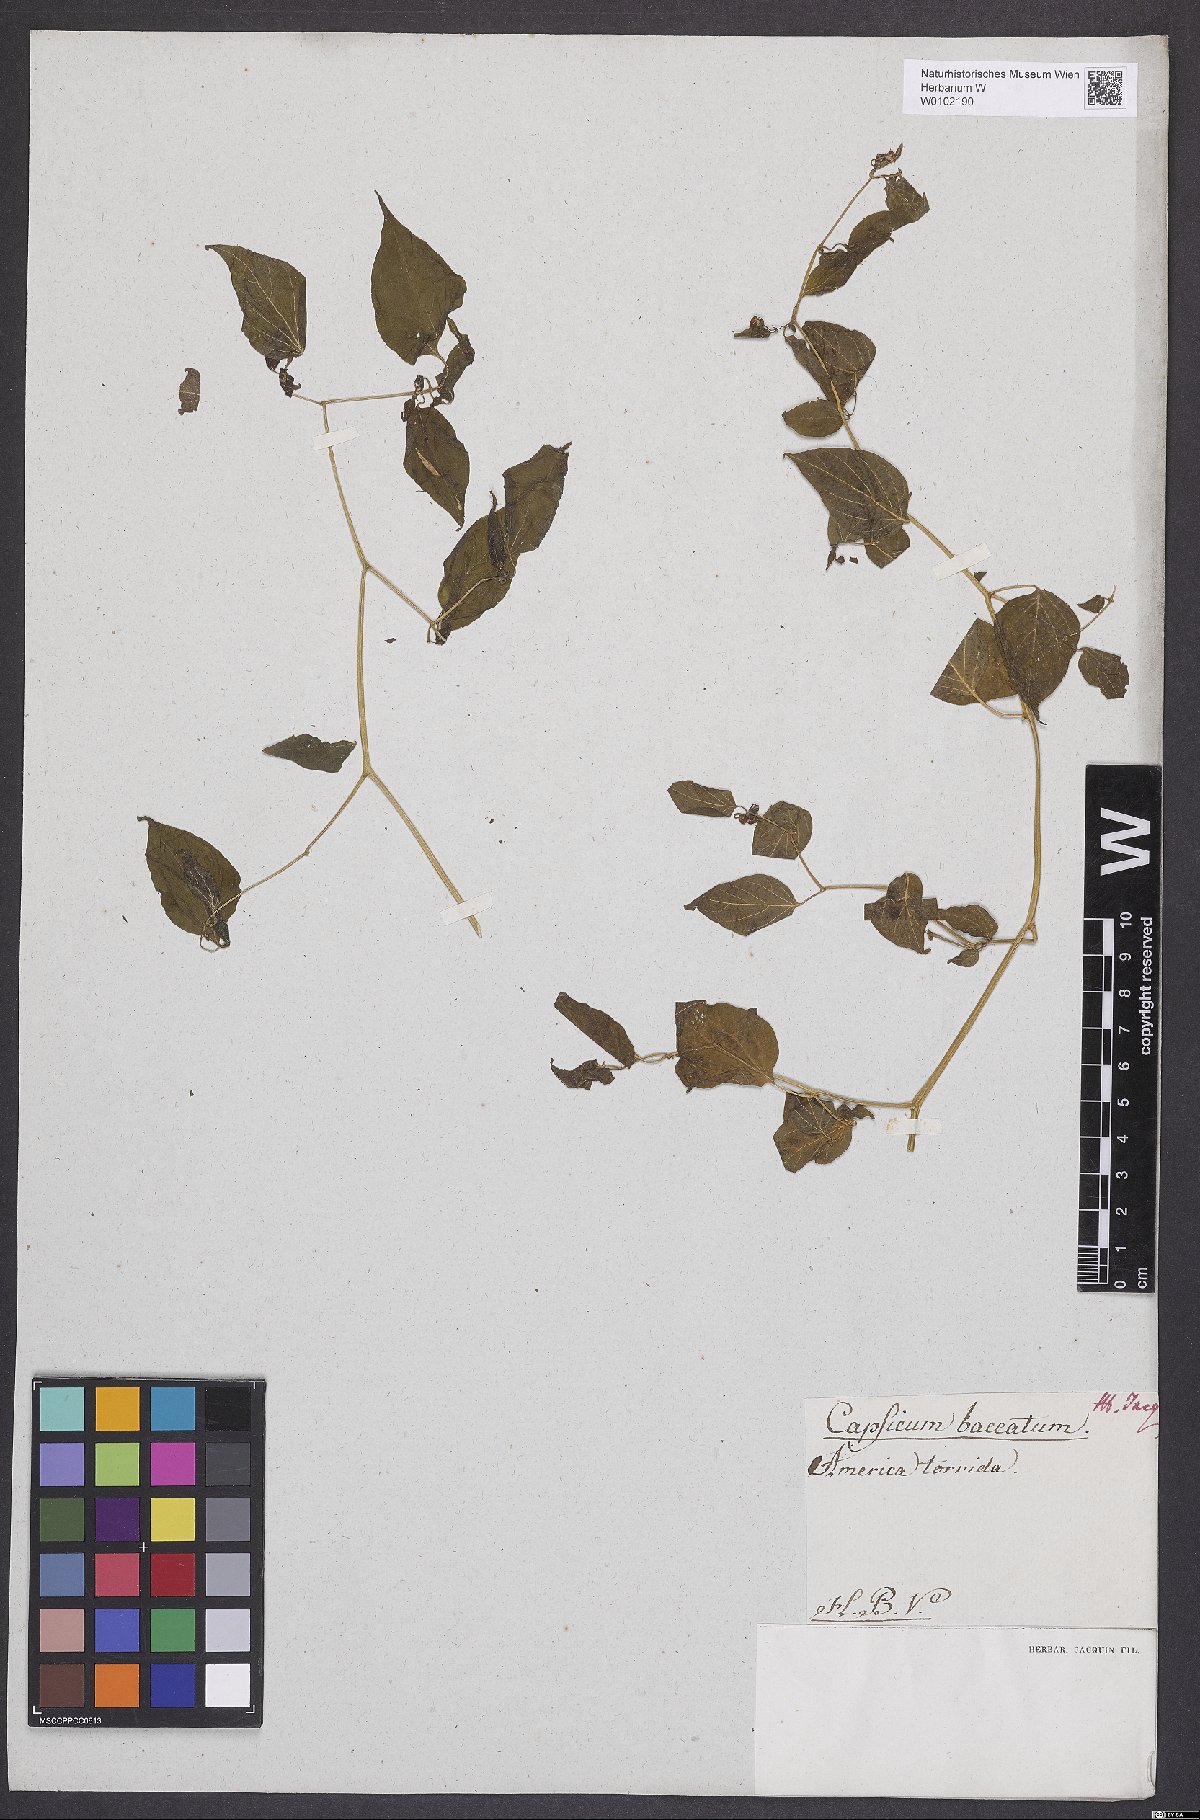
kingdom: Plantae
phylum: Tracheophyta
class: Magnoliopsida
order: Solanales
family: Solanaceae
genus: Capsicum
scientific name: Capsicum baccatum
